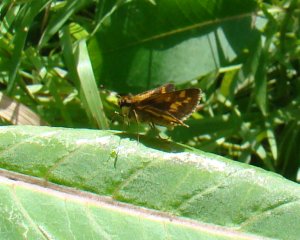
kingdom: Animalia
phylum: Arthropoda
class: Insecta
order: Lepidoptera
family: Hesperiidae
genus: Polites
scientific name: Polites coras
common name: Peck's Skipper
